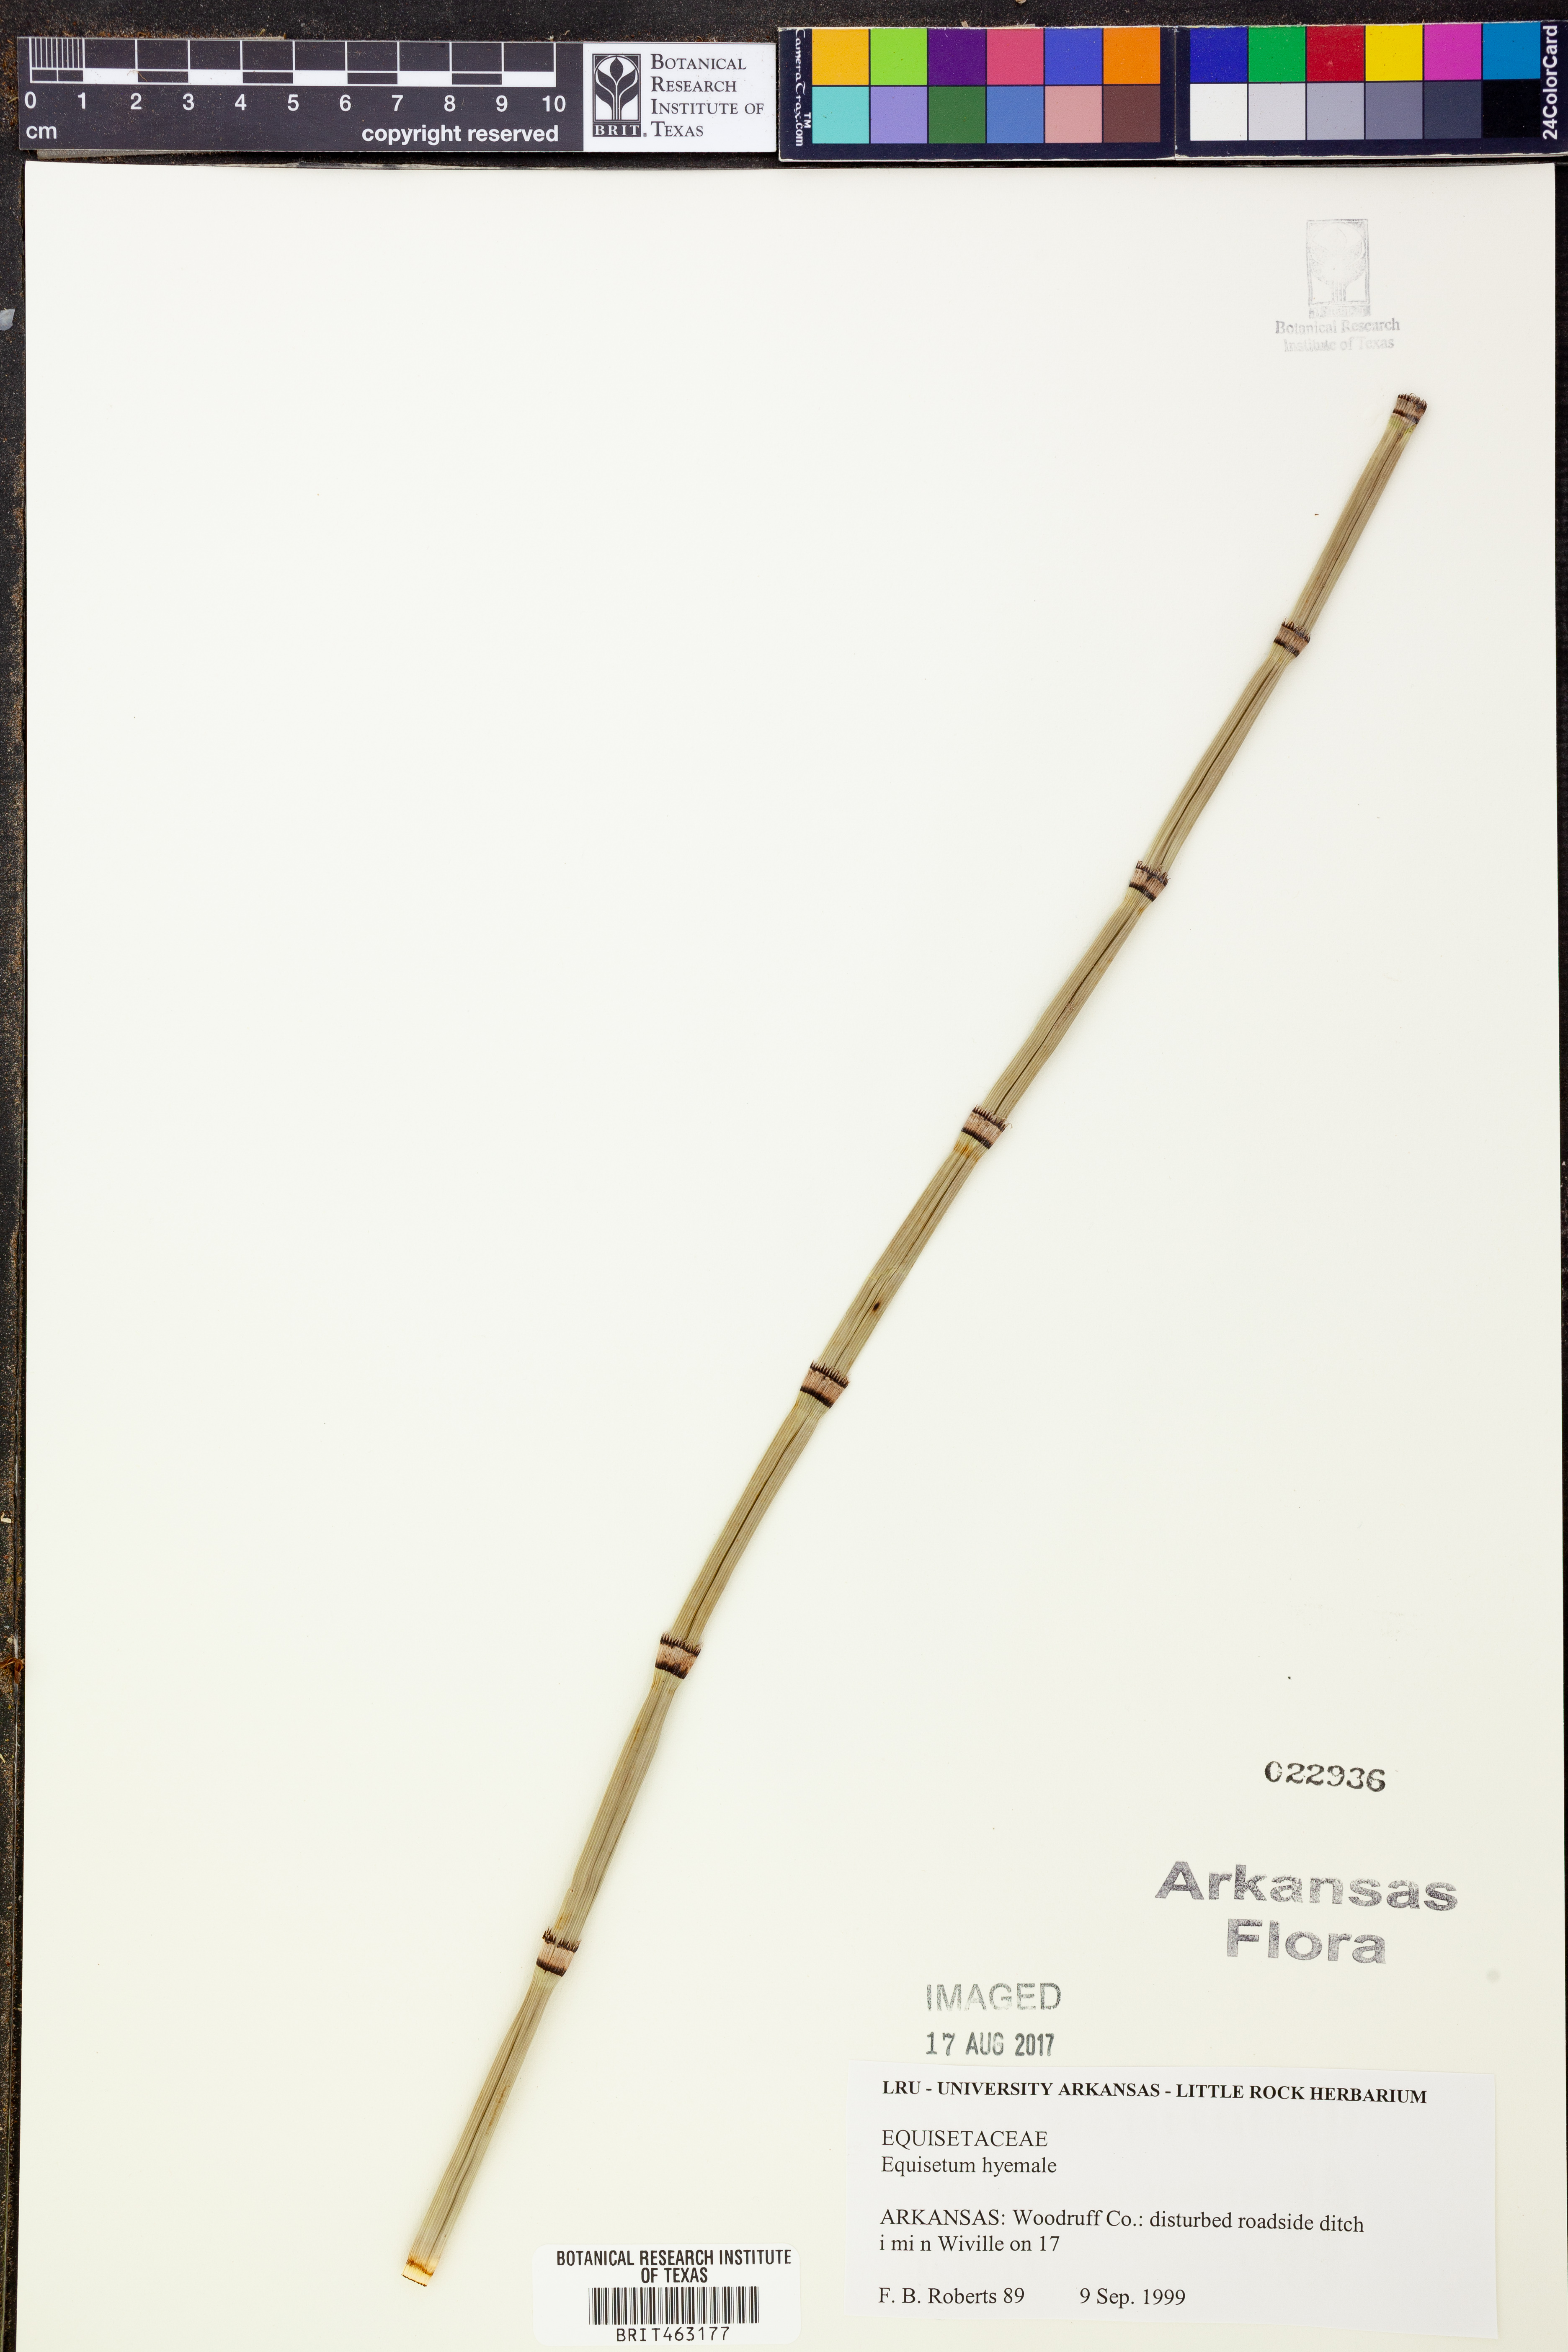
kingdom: Plantae
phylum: Tracheophyta
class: Polypodiopsida
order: Equisetales
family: Equisetaceae
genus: Equisetum
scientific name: Equisetum hyemale
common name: Rough horsetail
